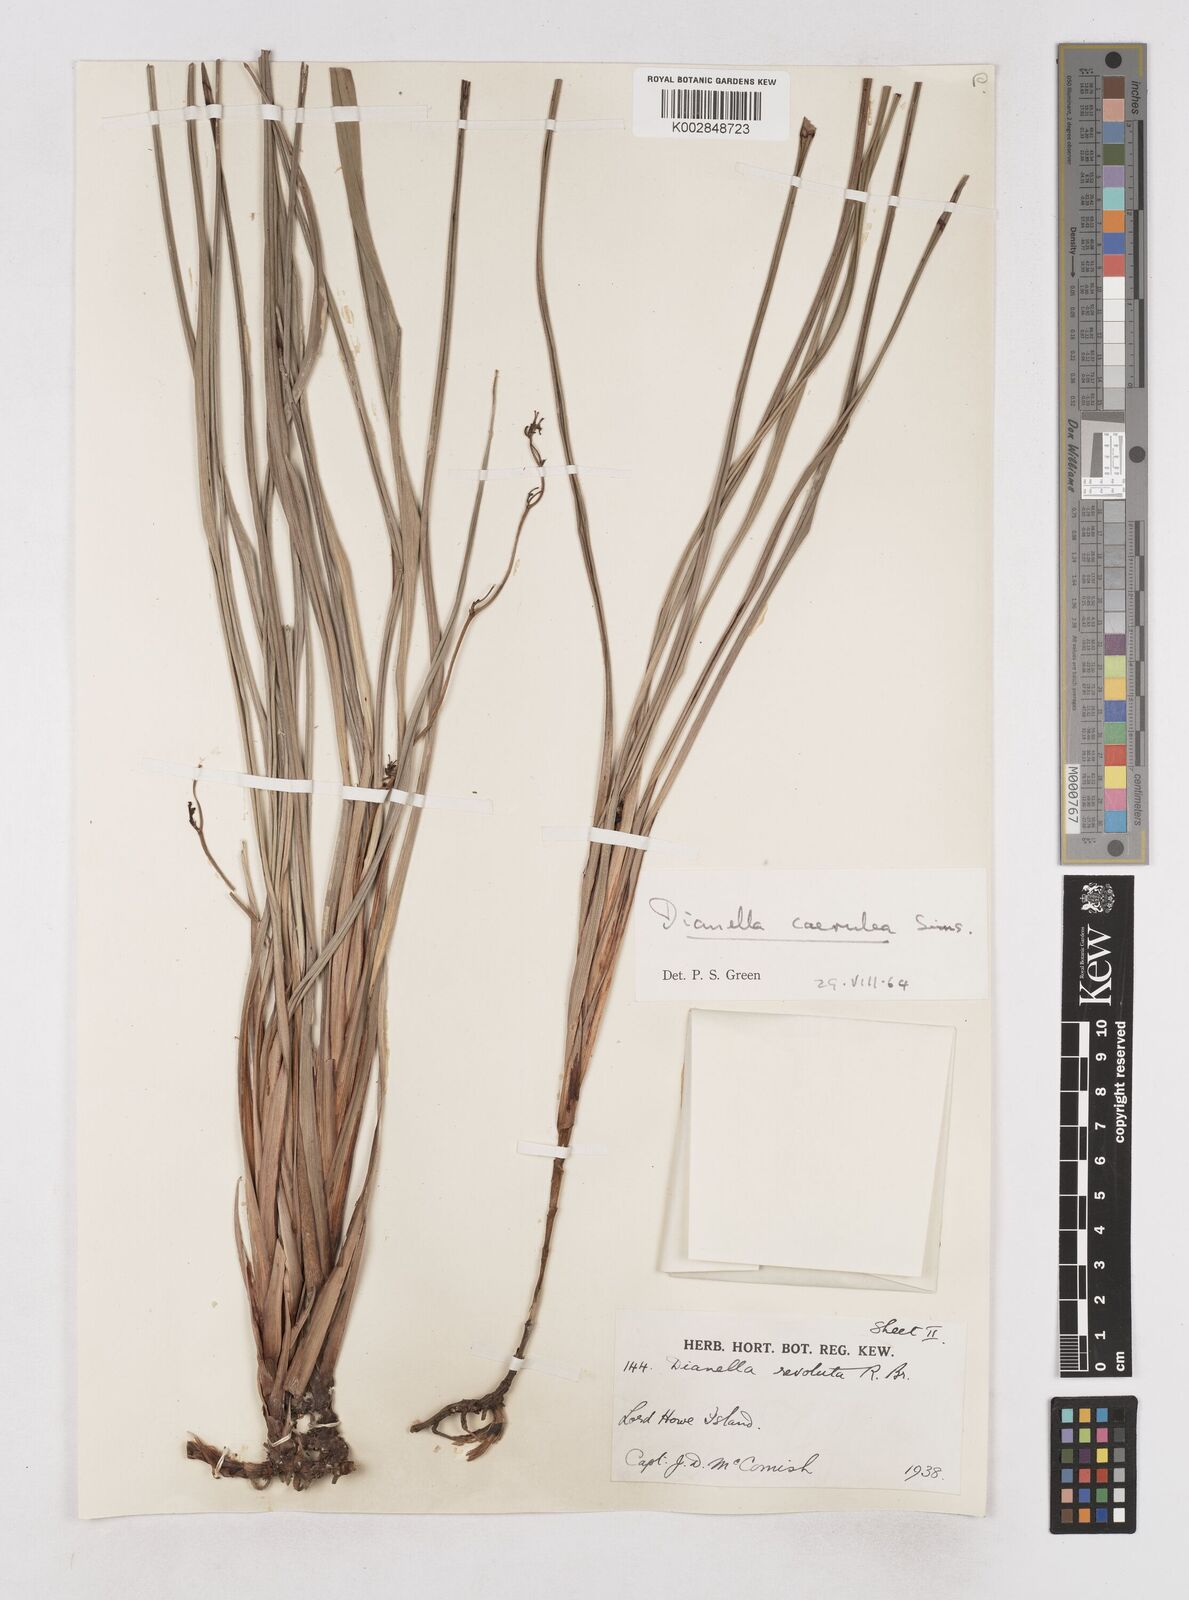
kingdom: Plantae
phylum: Tracheophyta
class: Liliopsida
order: Asparagales
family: Asphodelaceae
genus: Dianella
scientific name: Dianella
